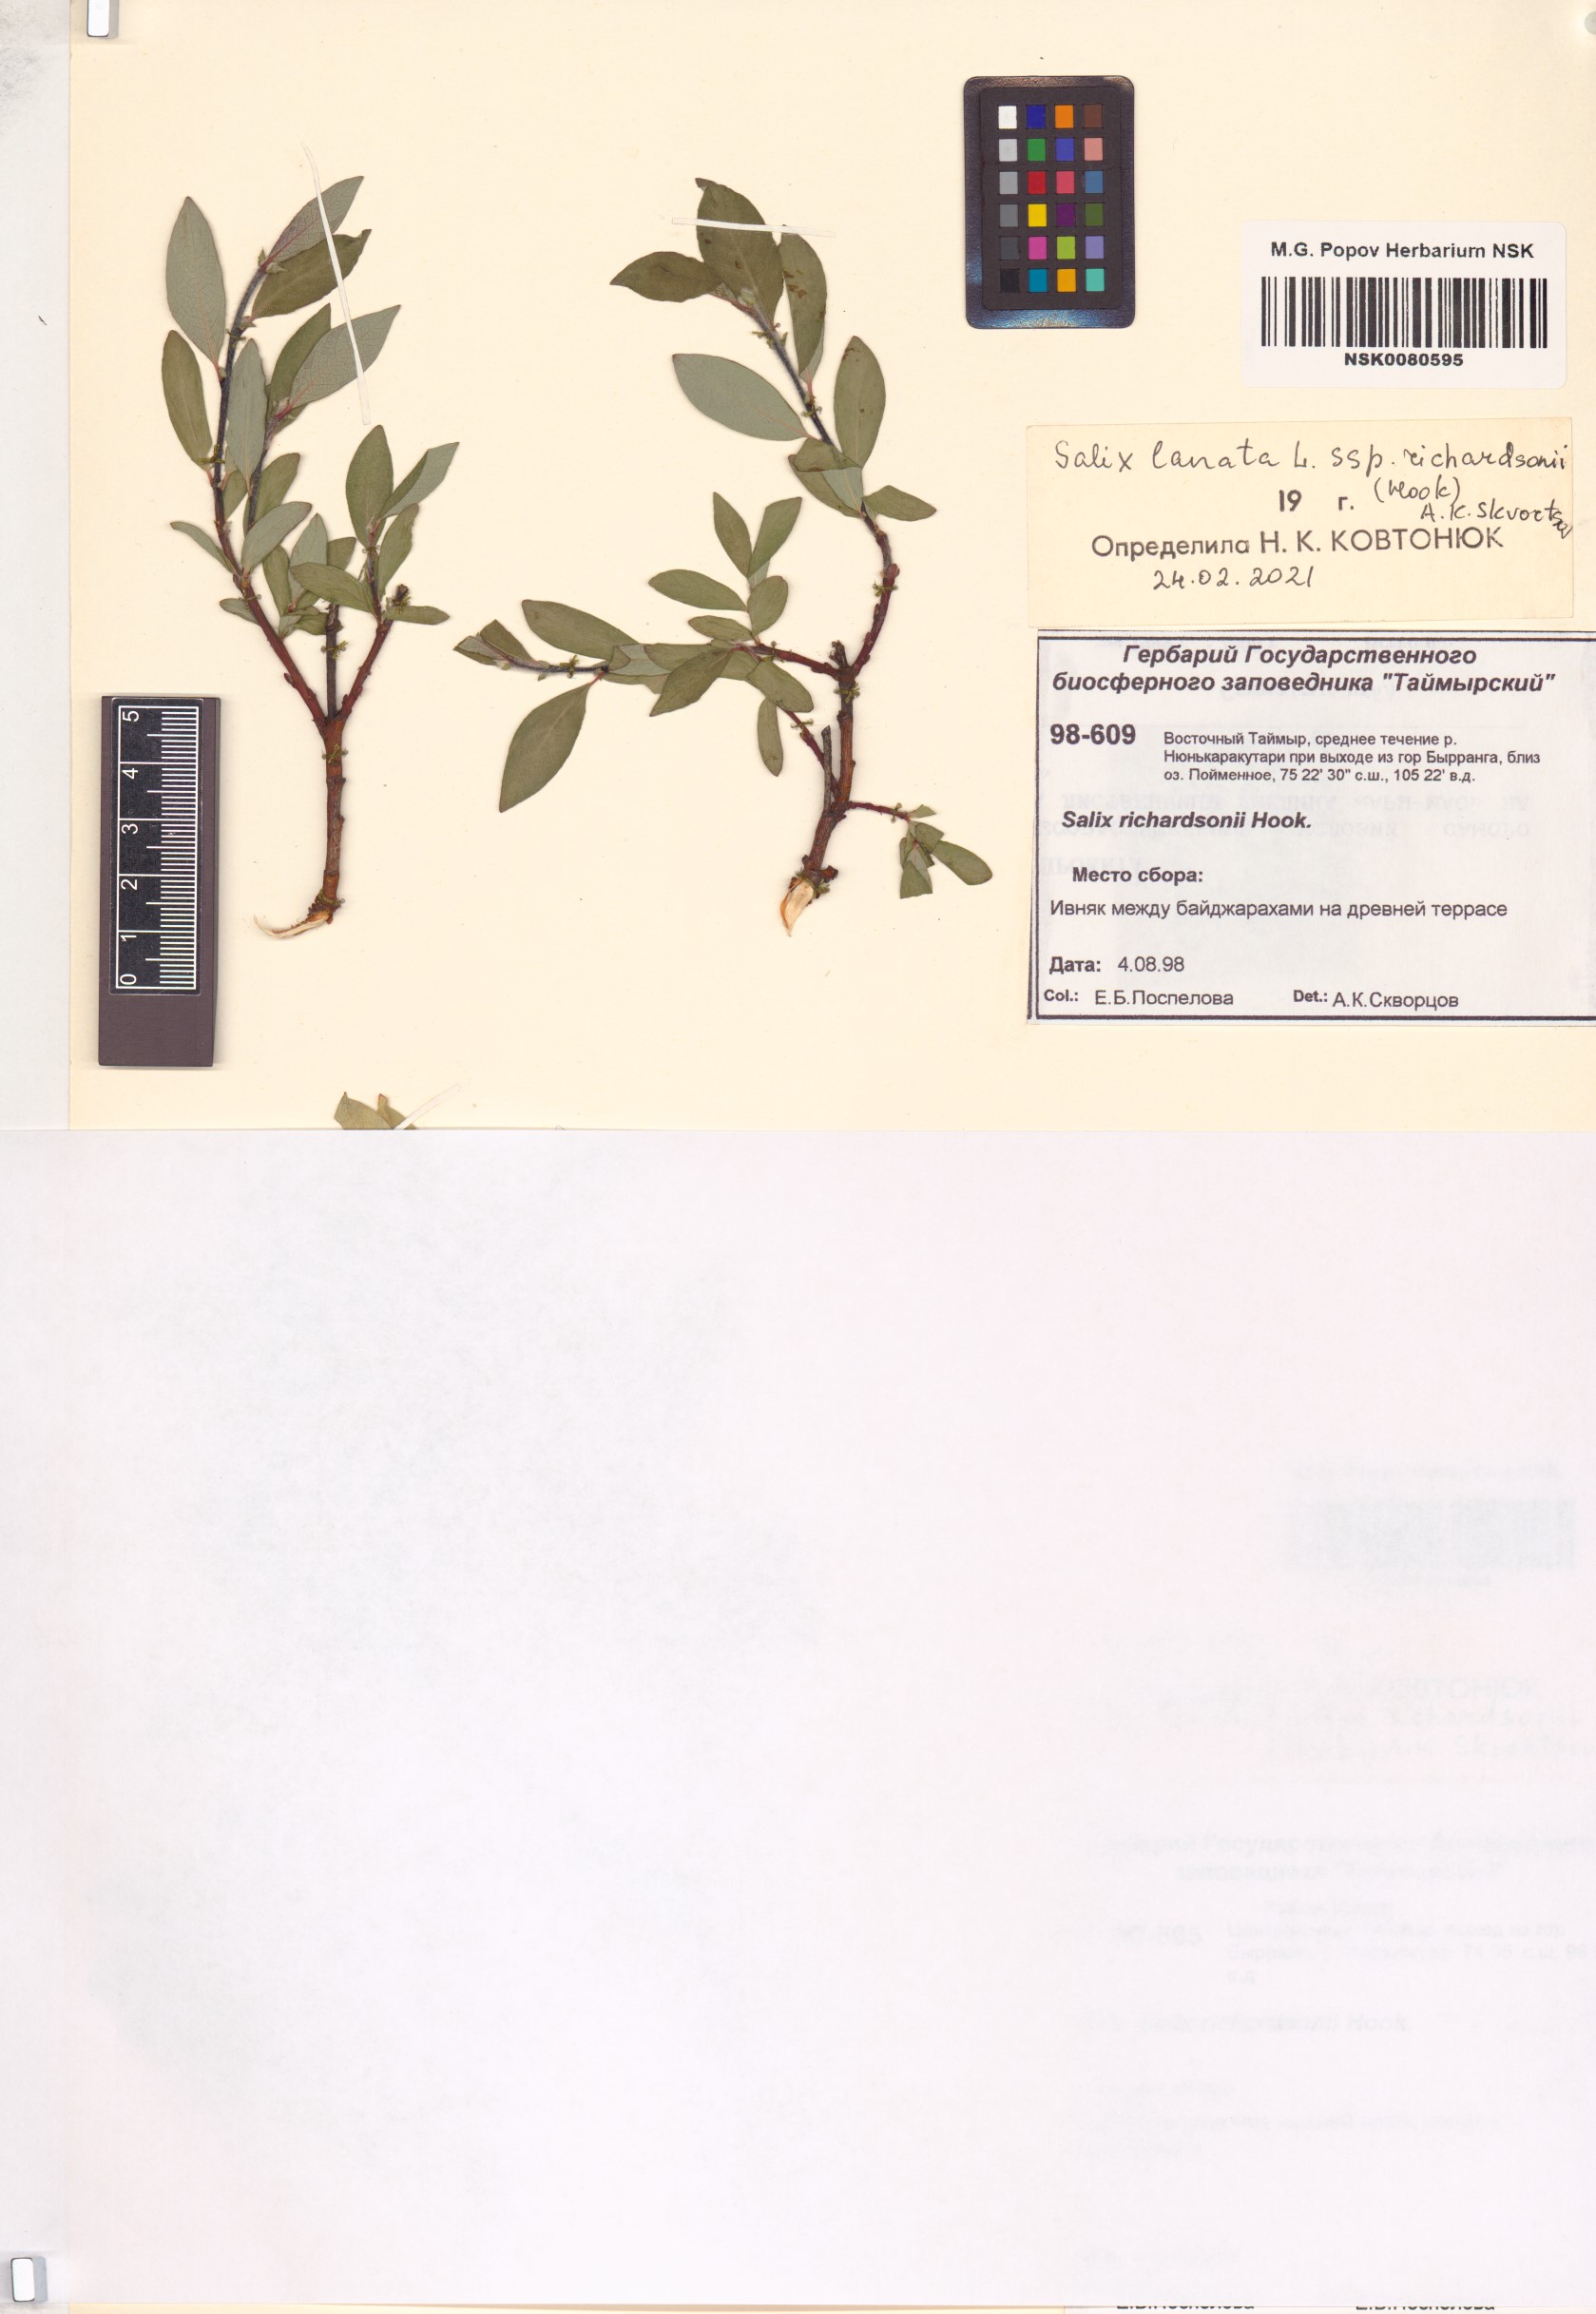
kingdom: Plantae
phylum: Tracheophyta
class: Magnoliopsida
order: Malpighiales
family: Salicaceae
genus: Salix
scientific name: Salix richardsonii
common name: Richardson’s willow
